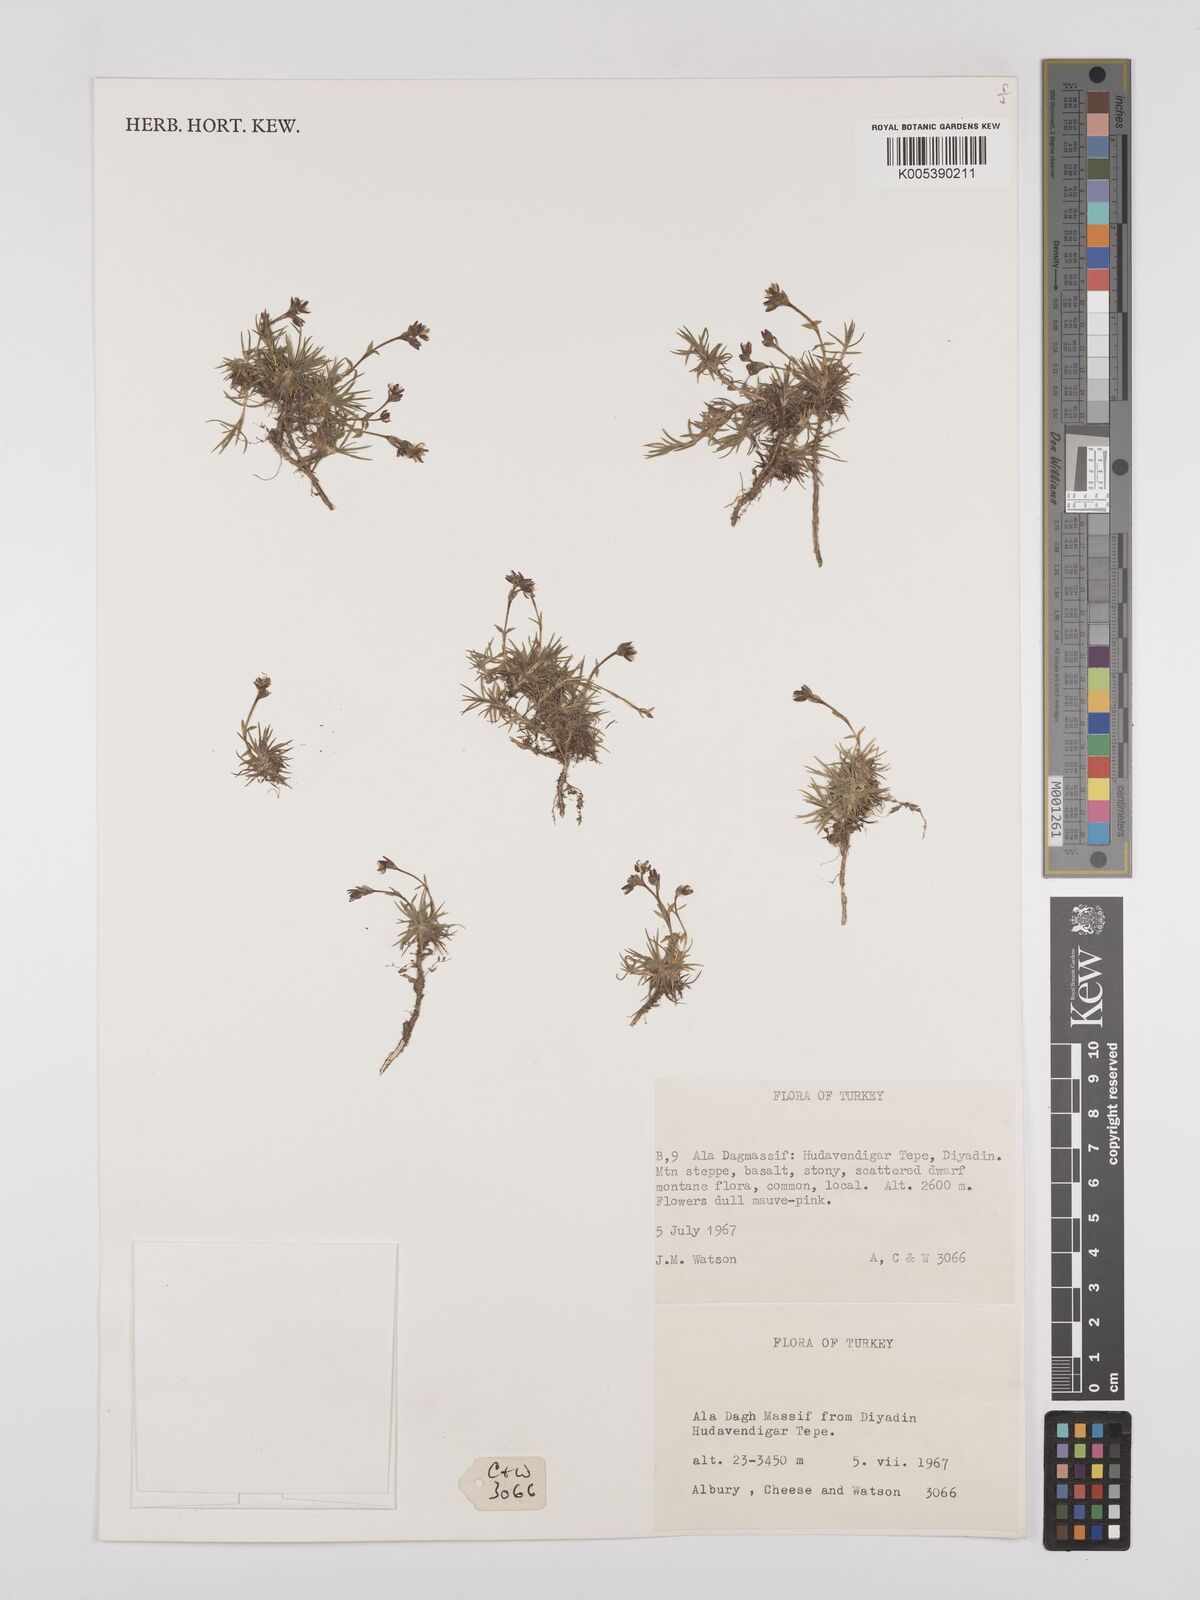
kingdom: Plantae
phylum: Tracheophyta
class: Magnoliopsida
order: Caryophyllales
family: Caryophyllaceae
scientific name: Caryophyllaceae
